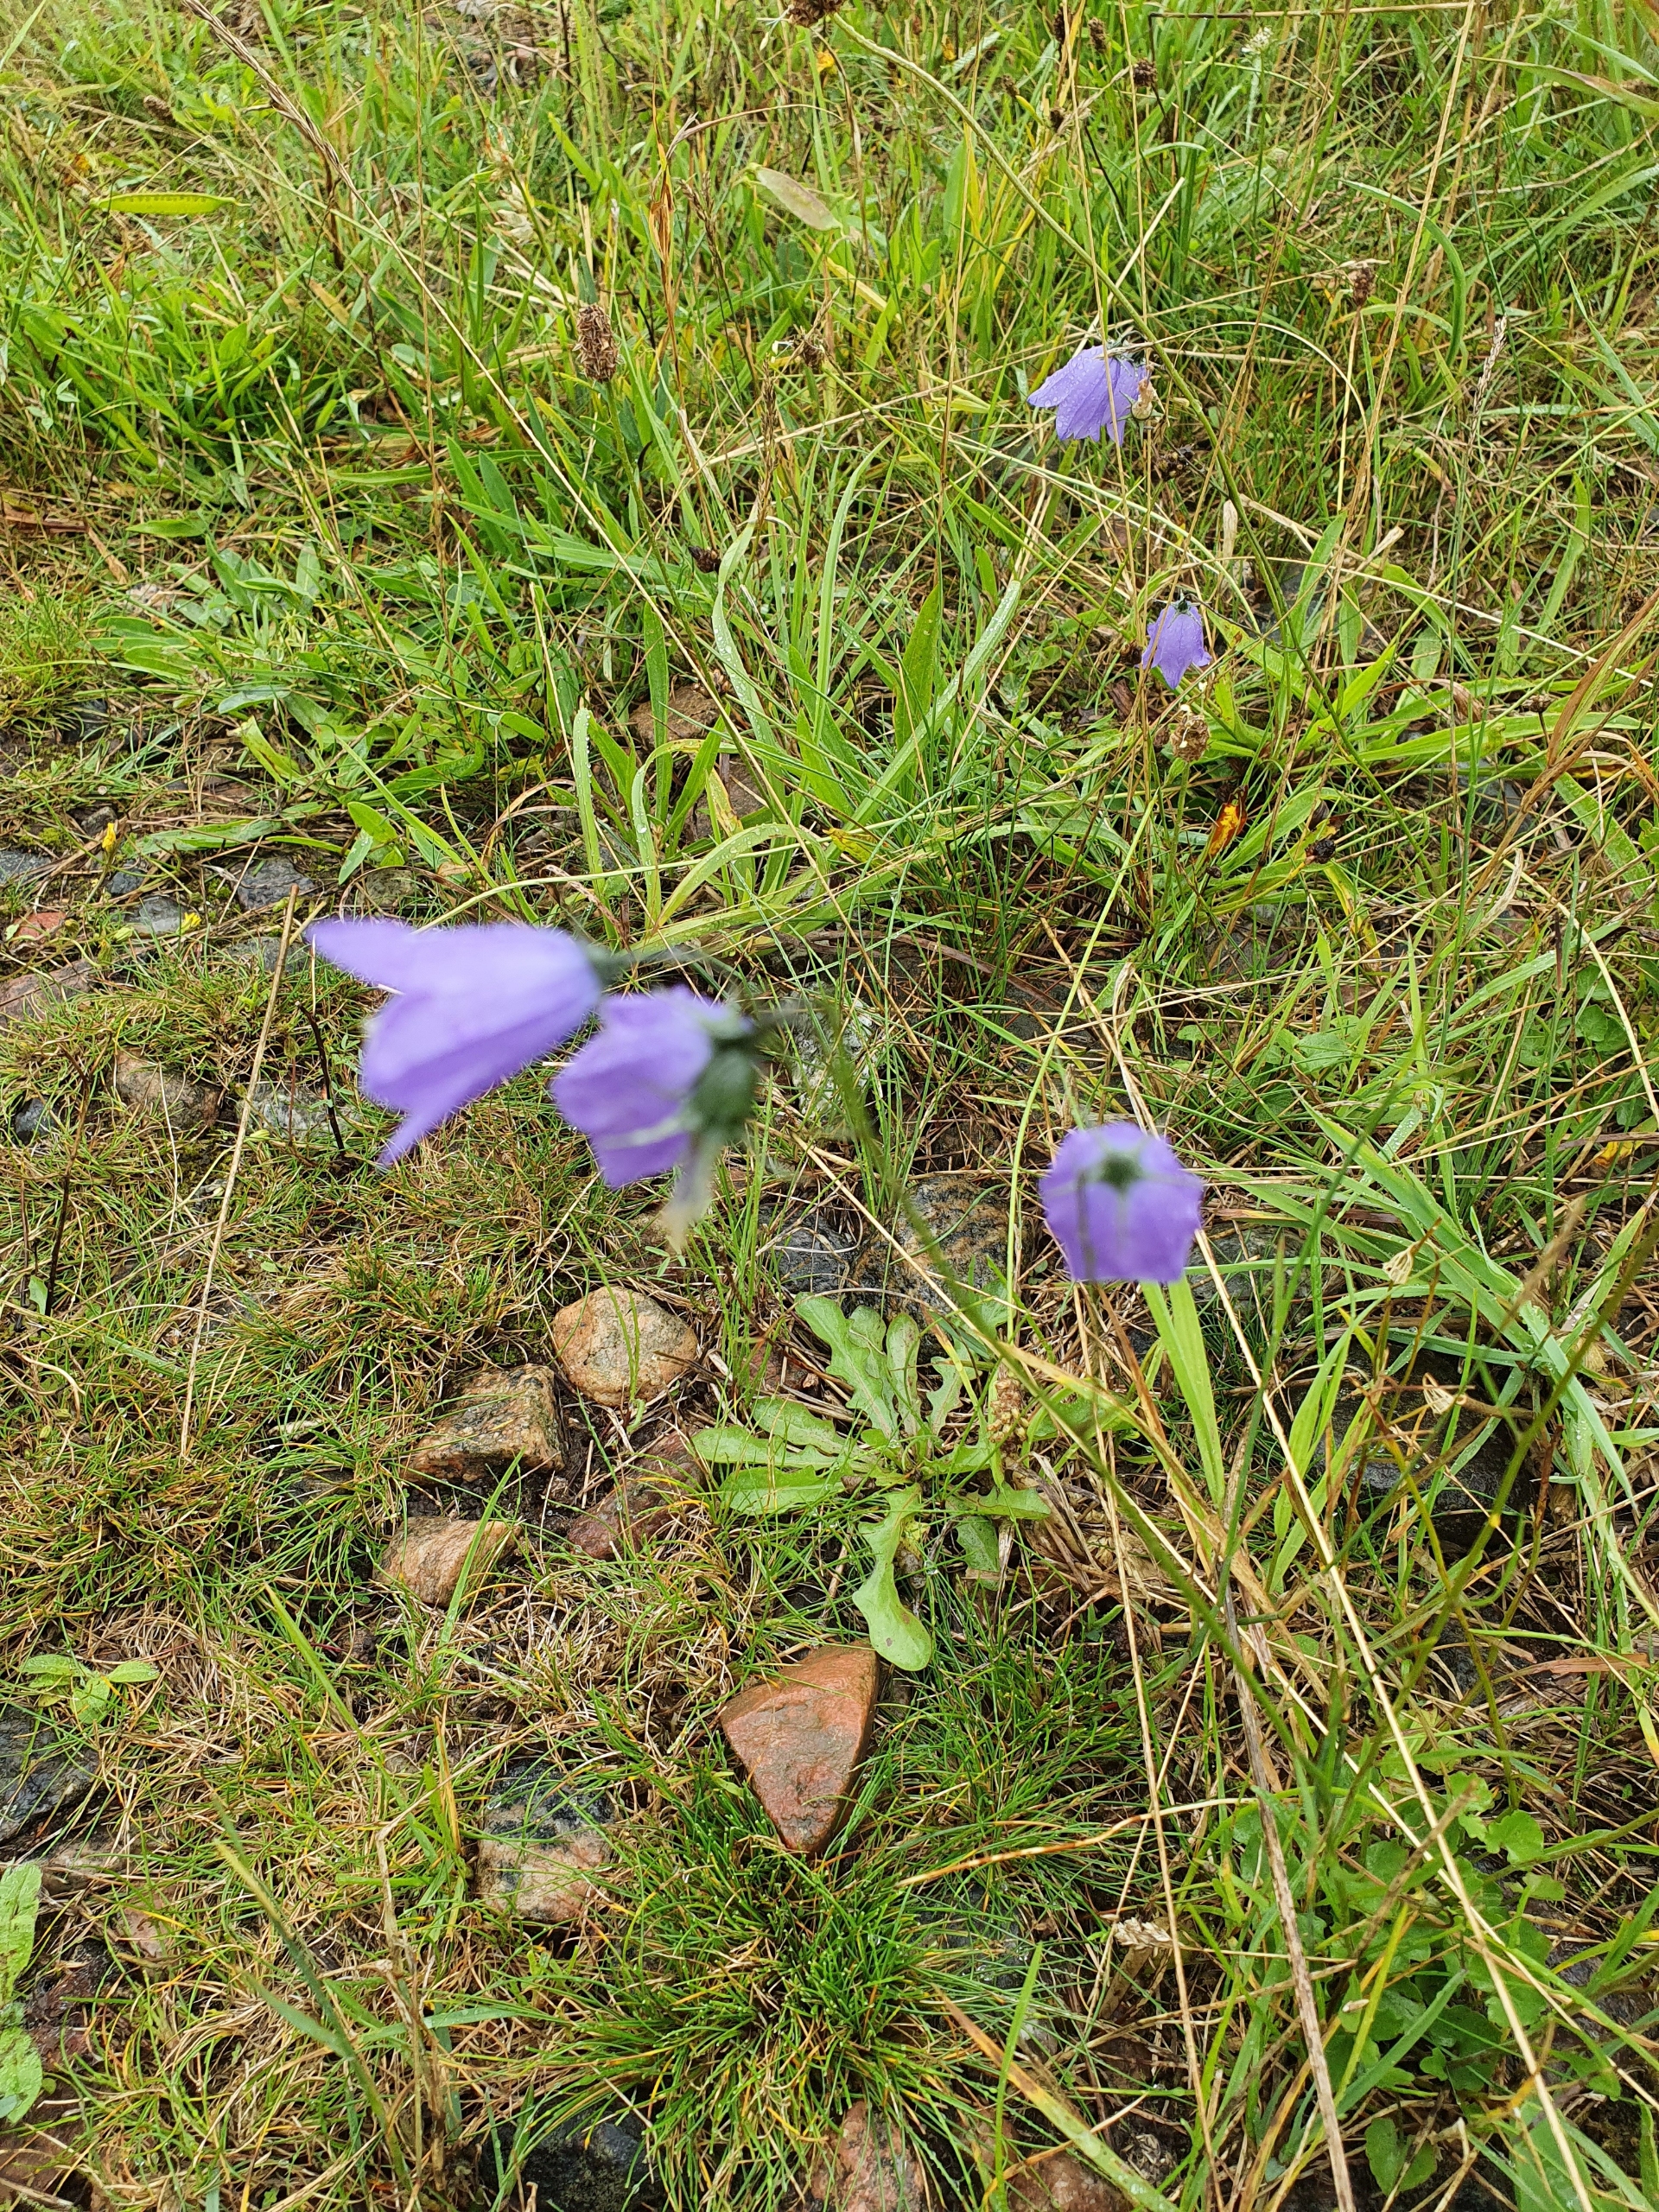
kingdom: Plantae
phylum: Tracheophyta
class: Magnoliopsida
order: Asterales
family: Campanulaceae
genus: Campanula
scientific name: Campanula rotundifolia
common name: Liden klokke
